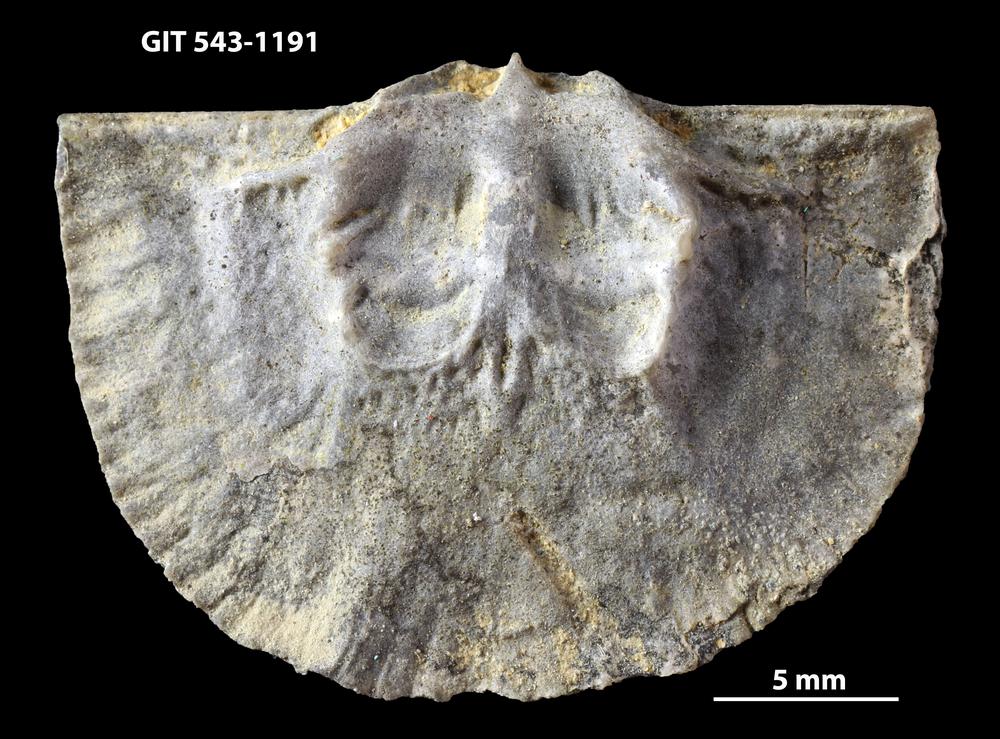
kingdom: Animalia
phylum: Brachiopoda
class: Rhynchonellata
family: Clitambonitidae
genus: Vellamo
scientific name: Vellamo Orthis verneuili
